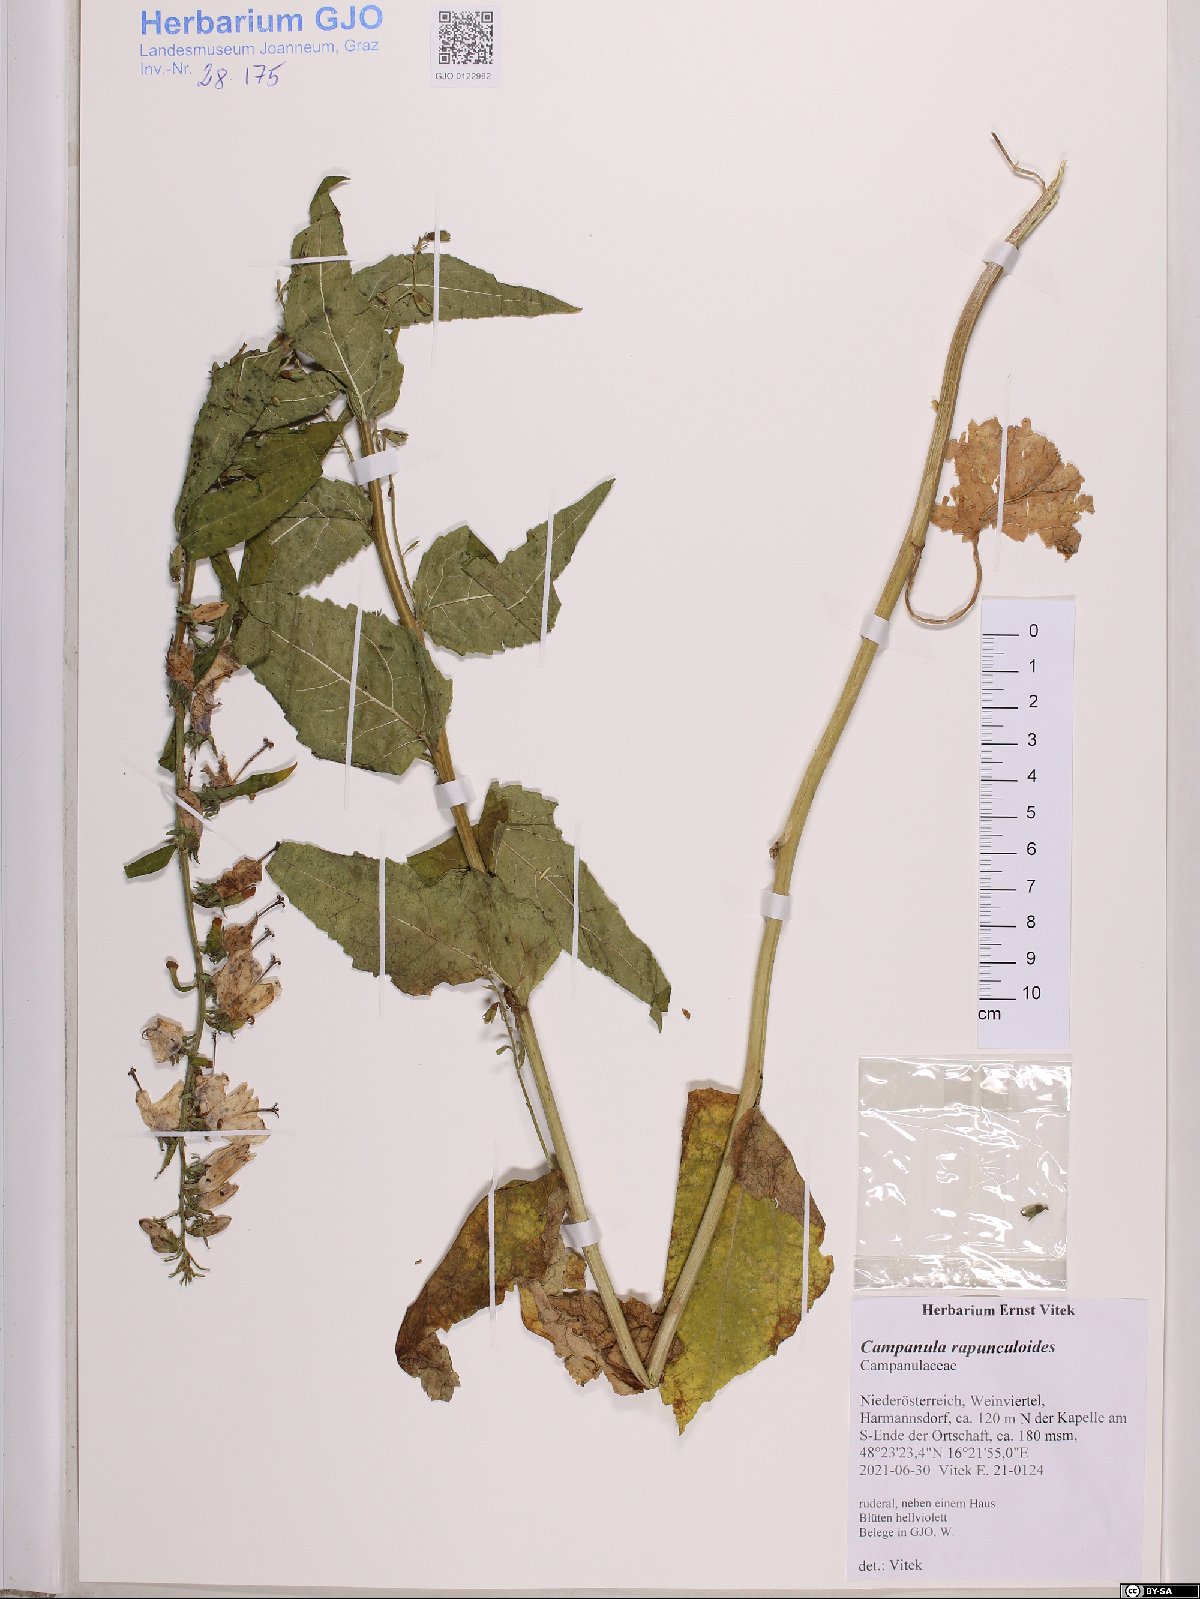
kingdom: Plantae
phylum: Tracheophyta
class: Magnoliopsida
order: Asterales
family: Campanulaceae
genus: Campanula
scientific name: Campanula rapunculoides
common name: Creeping bellflower
